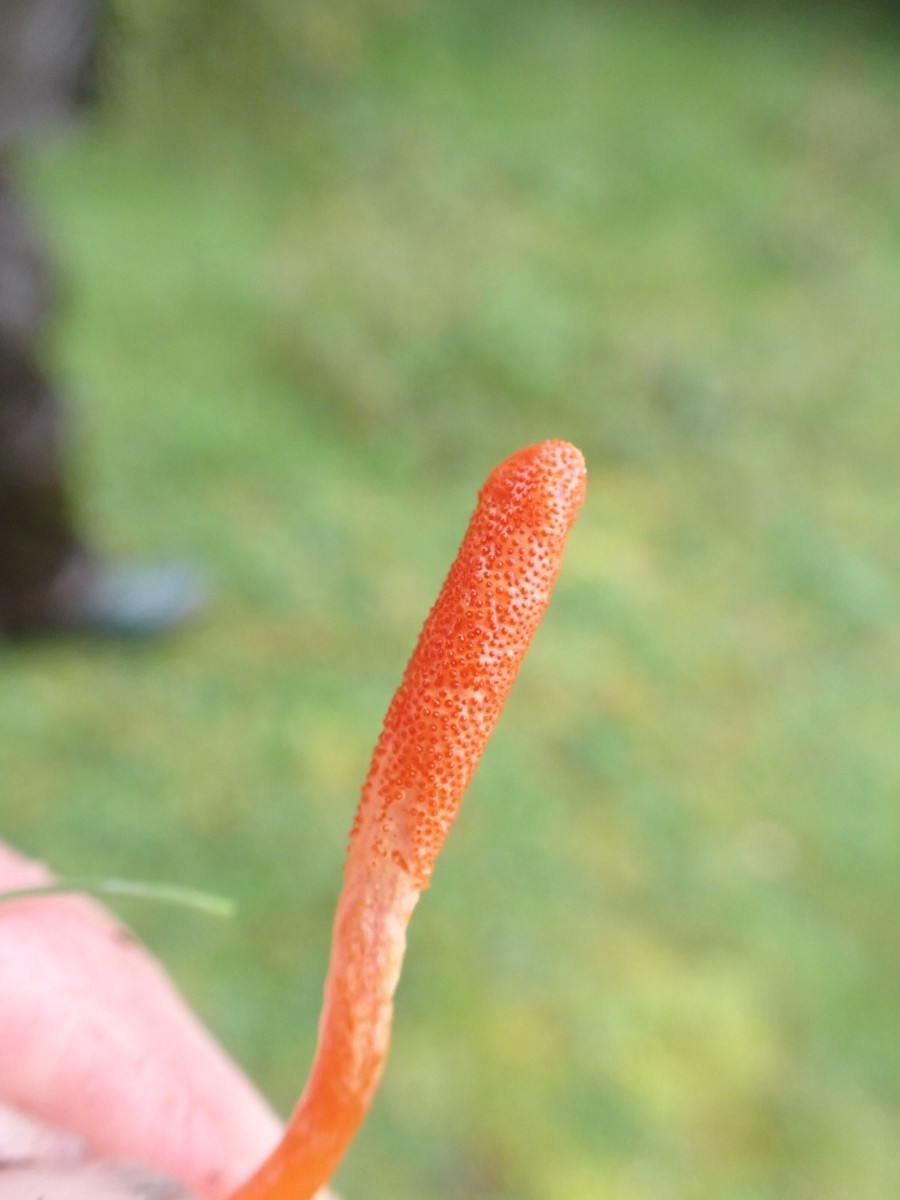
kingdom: Fungi
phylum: Ascomycota
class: Sordariomycetes
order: Hypocreales
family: Cordycipitaceae
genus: Cordyceps
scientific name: Cordyceps militaris
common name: puppe-snyltekølle
